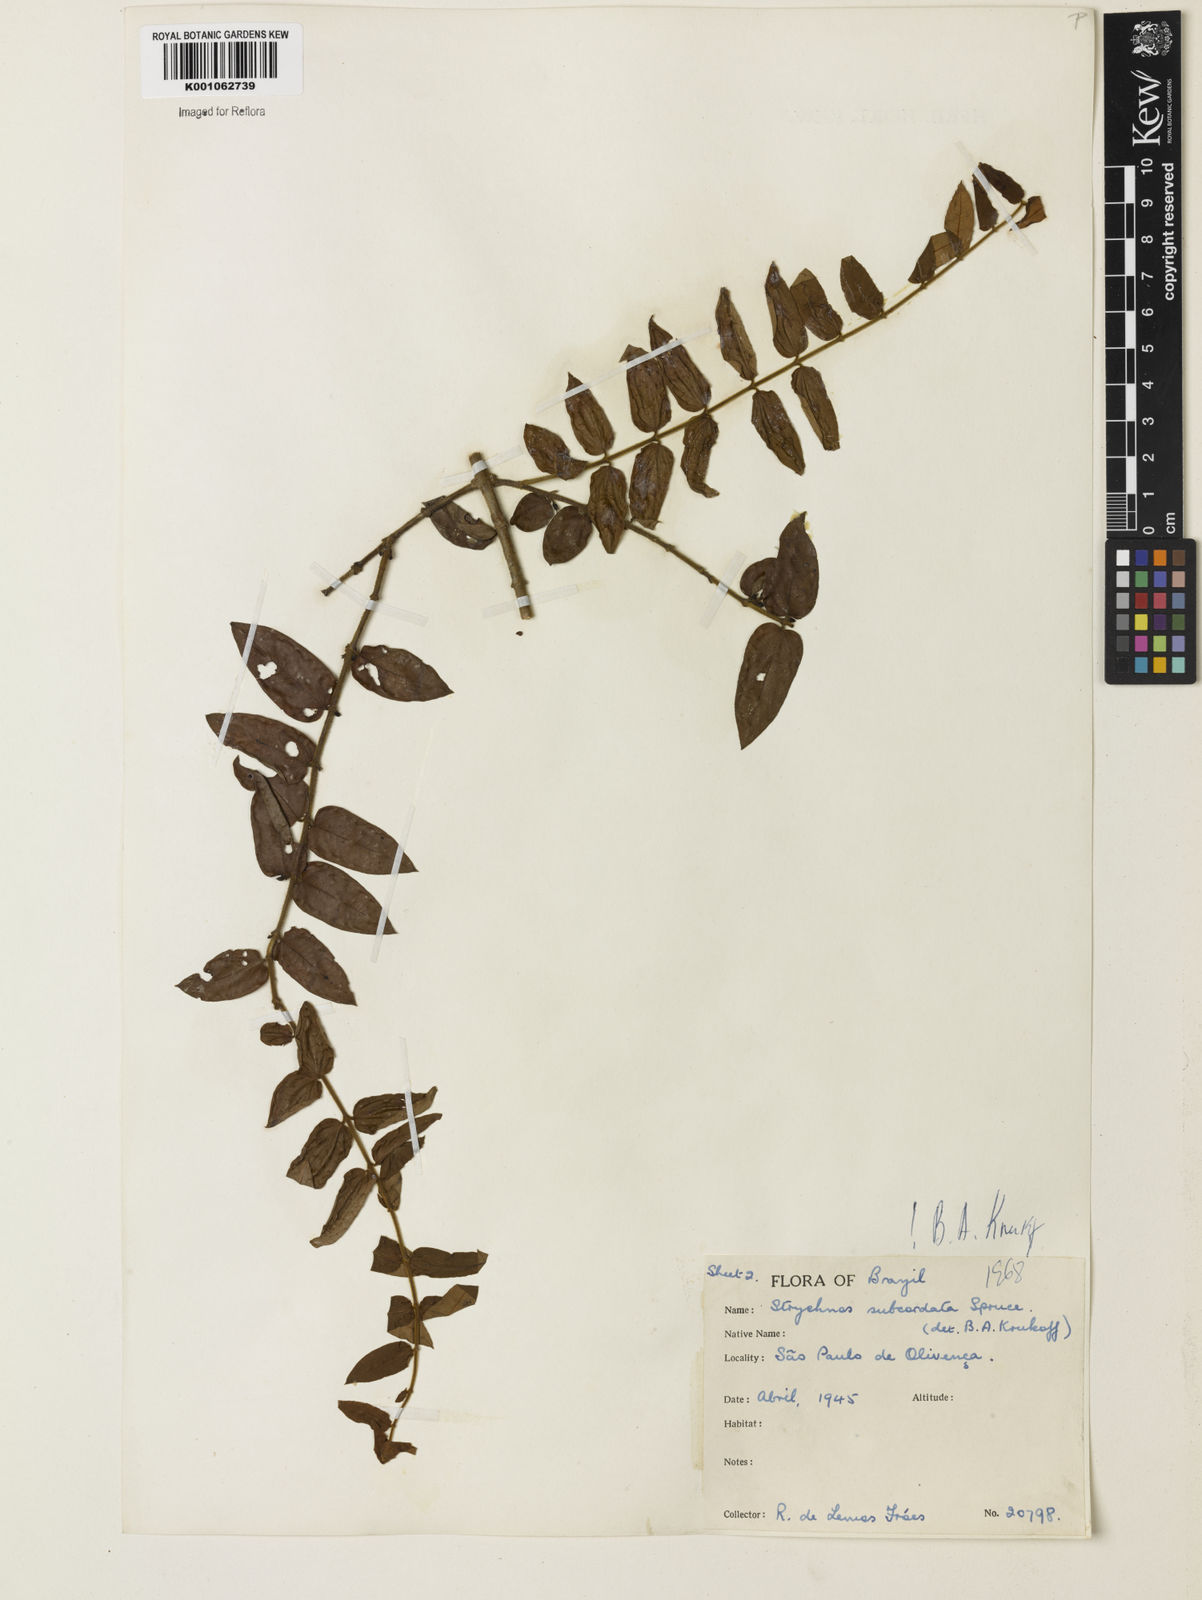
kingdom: Plantae
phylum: Tracheophyta
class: Magnoliopsida
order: Gentianales
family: Loganiaceae
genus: Strychnos
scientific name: Strychnos subcordata
